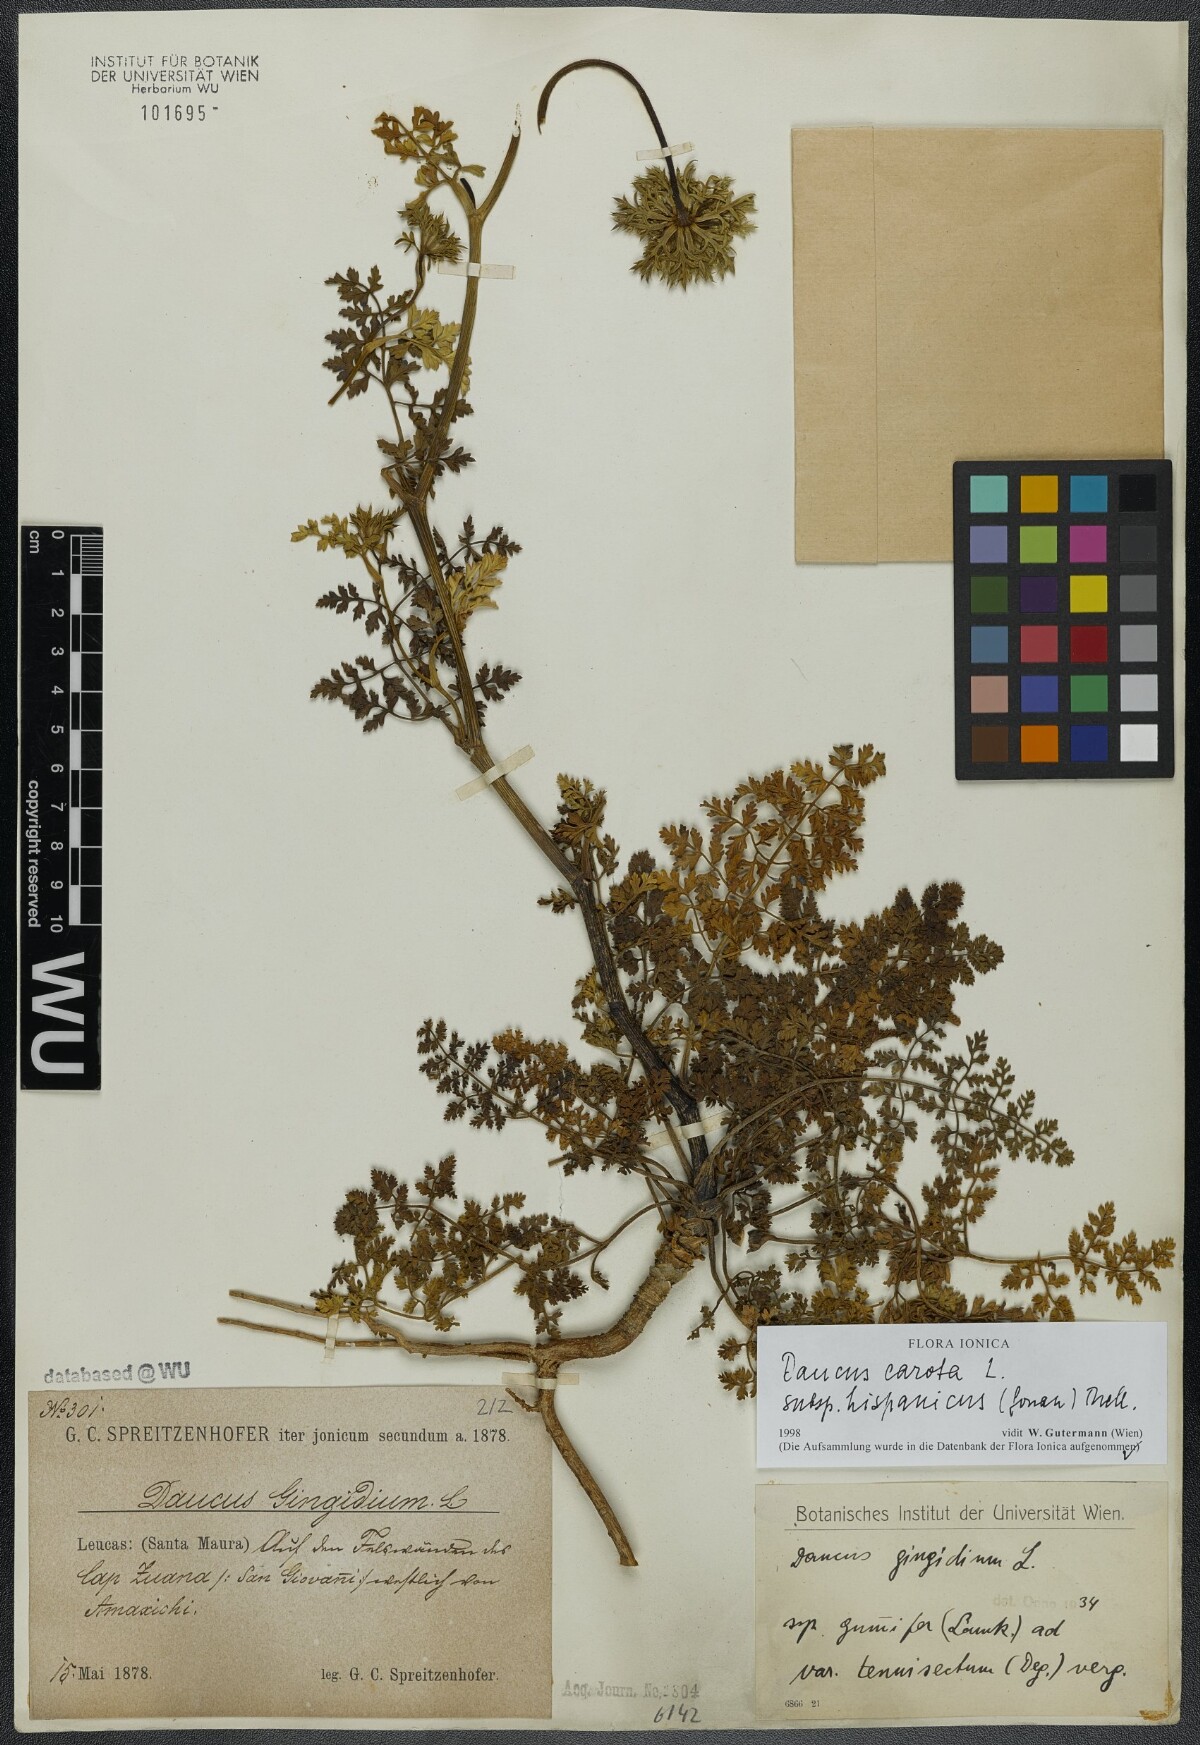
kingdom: Plantae
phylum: Tracheophyta
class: Magnoliopsida
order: Apiales
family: Apiaceae
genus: Daucus
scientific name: Daucus carota
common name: Wild carrot
